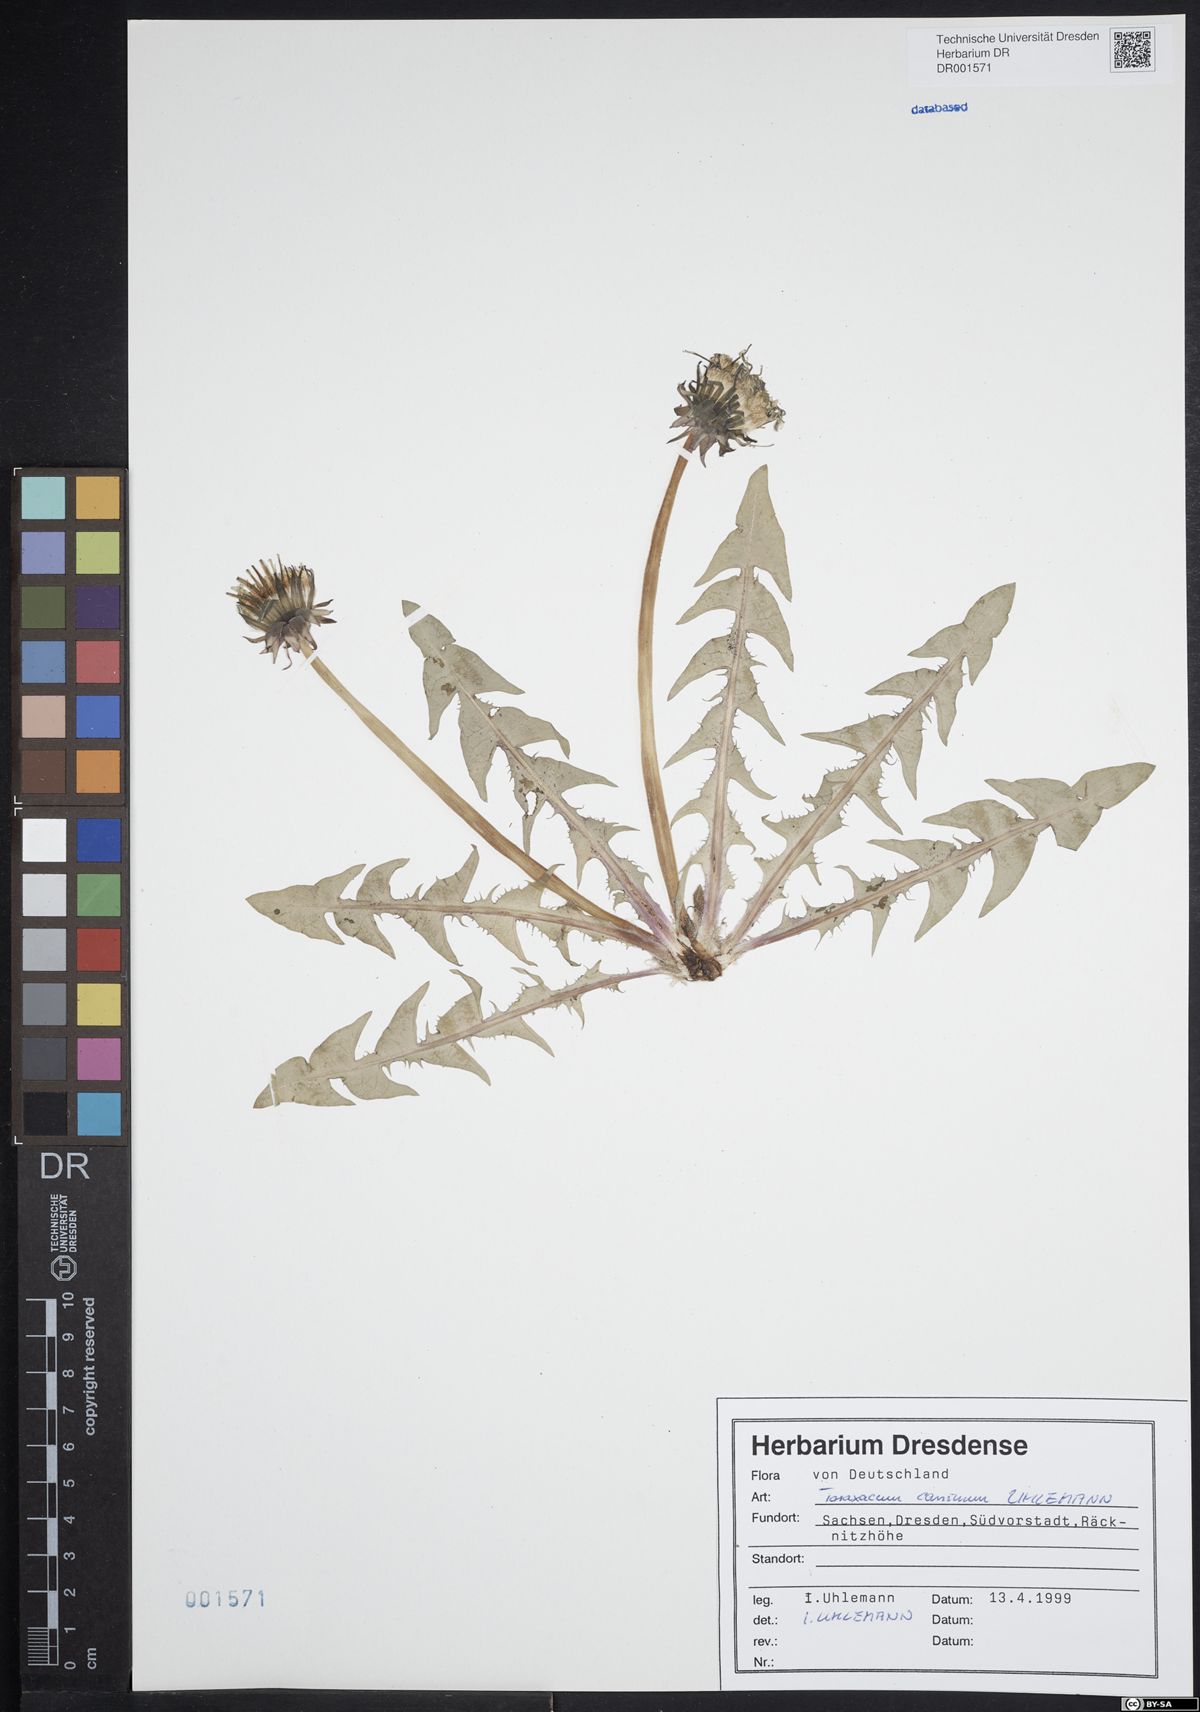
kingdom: Plantae
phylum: Tracheophyta
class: Magnoliopsida
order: Asterales
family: Asteraceae
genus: Taraxacum
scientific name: Taraxacum caninum
